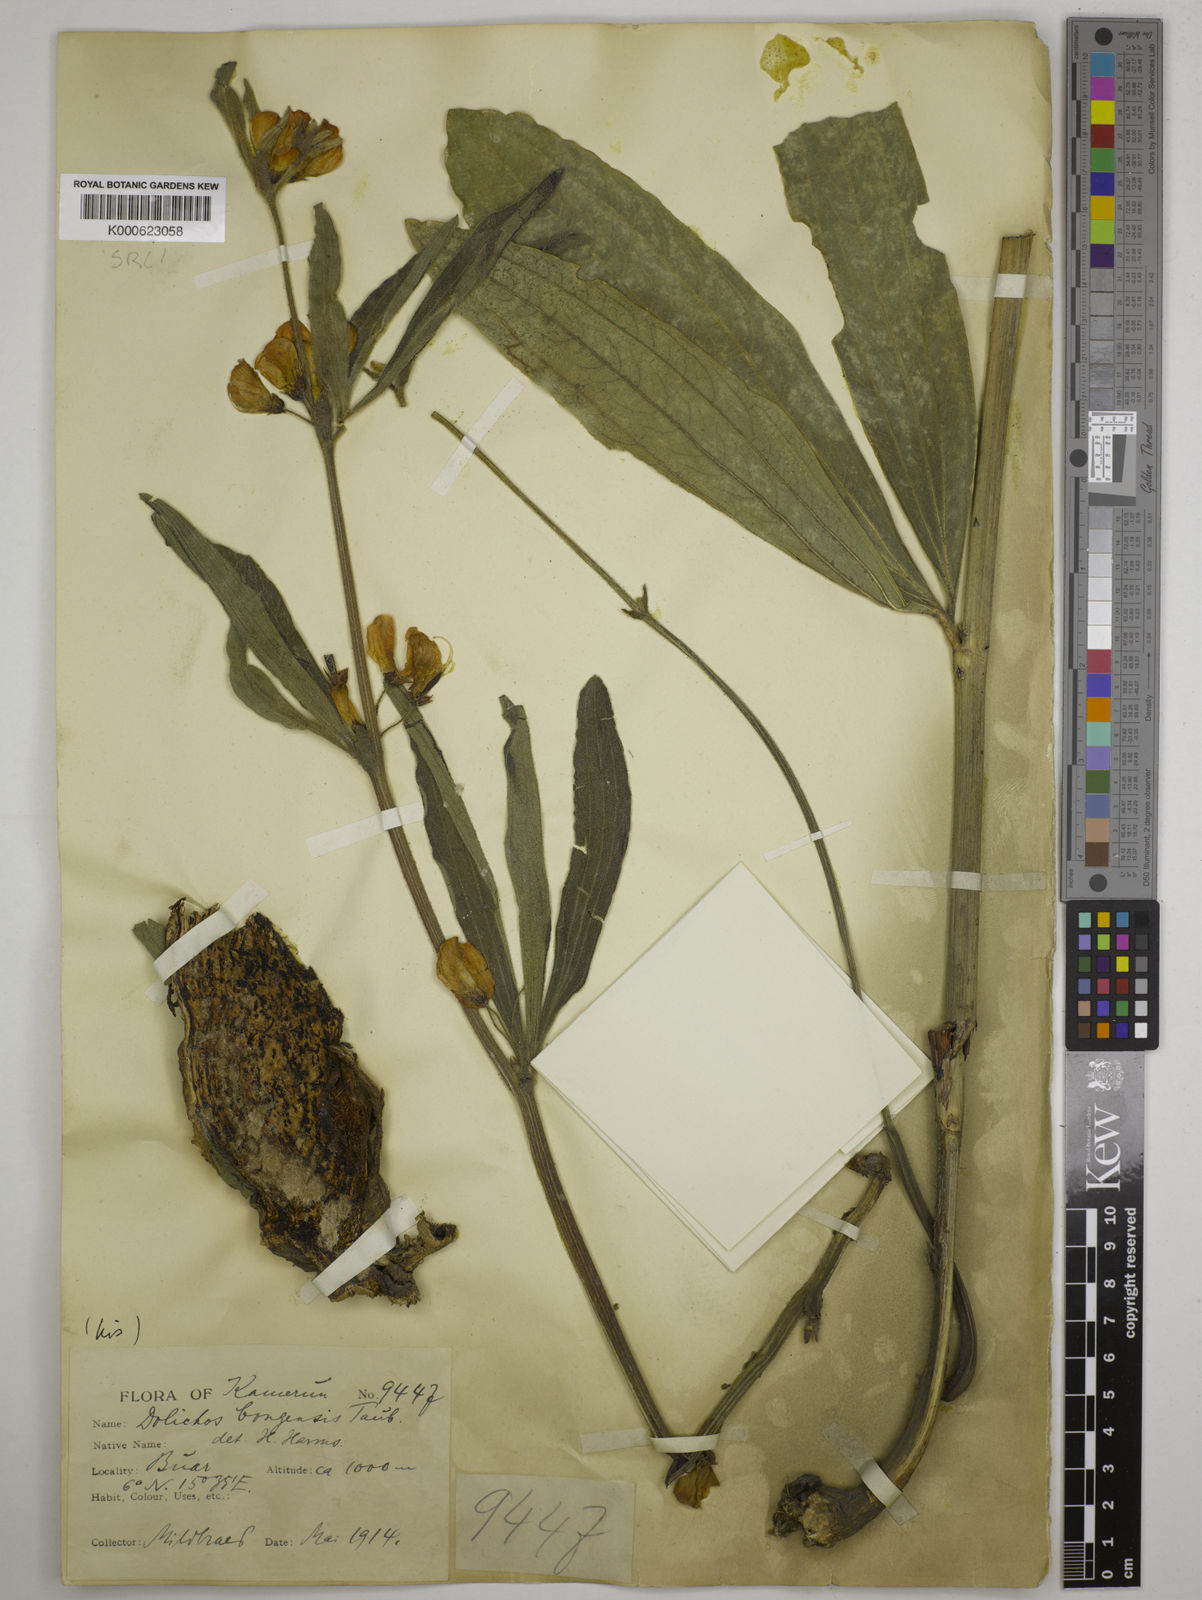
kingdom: Plantae
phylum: Tracheophyta
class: Magnoliopsida
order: Fabales
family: Fabaceae
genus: Dolichos
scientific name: Dolichos
